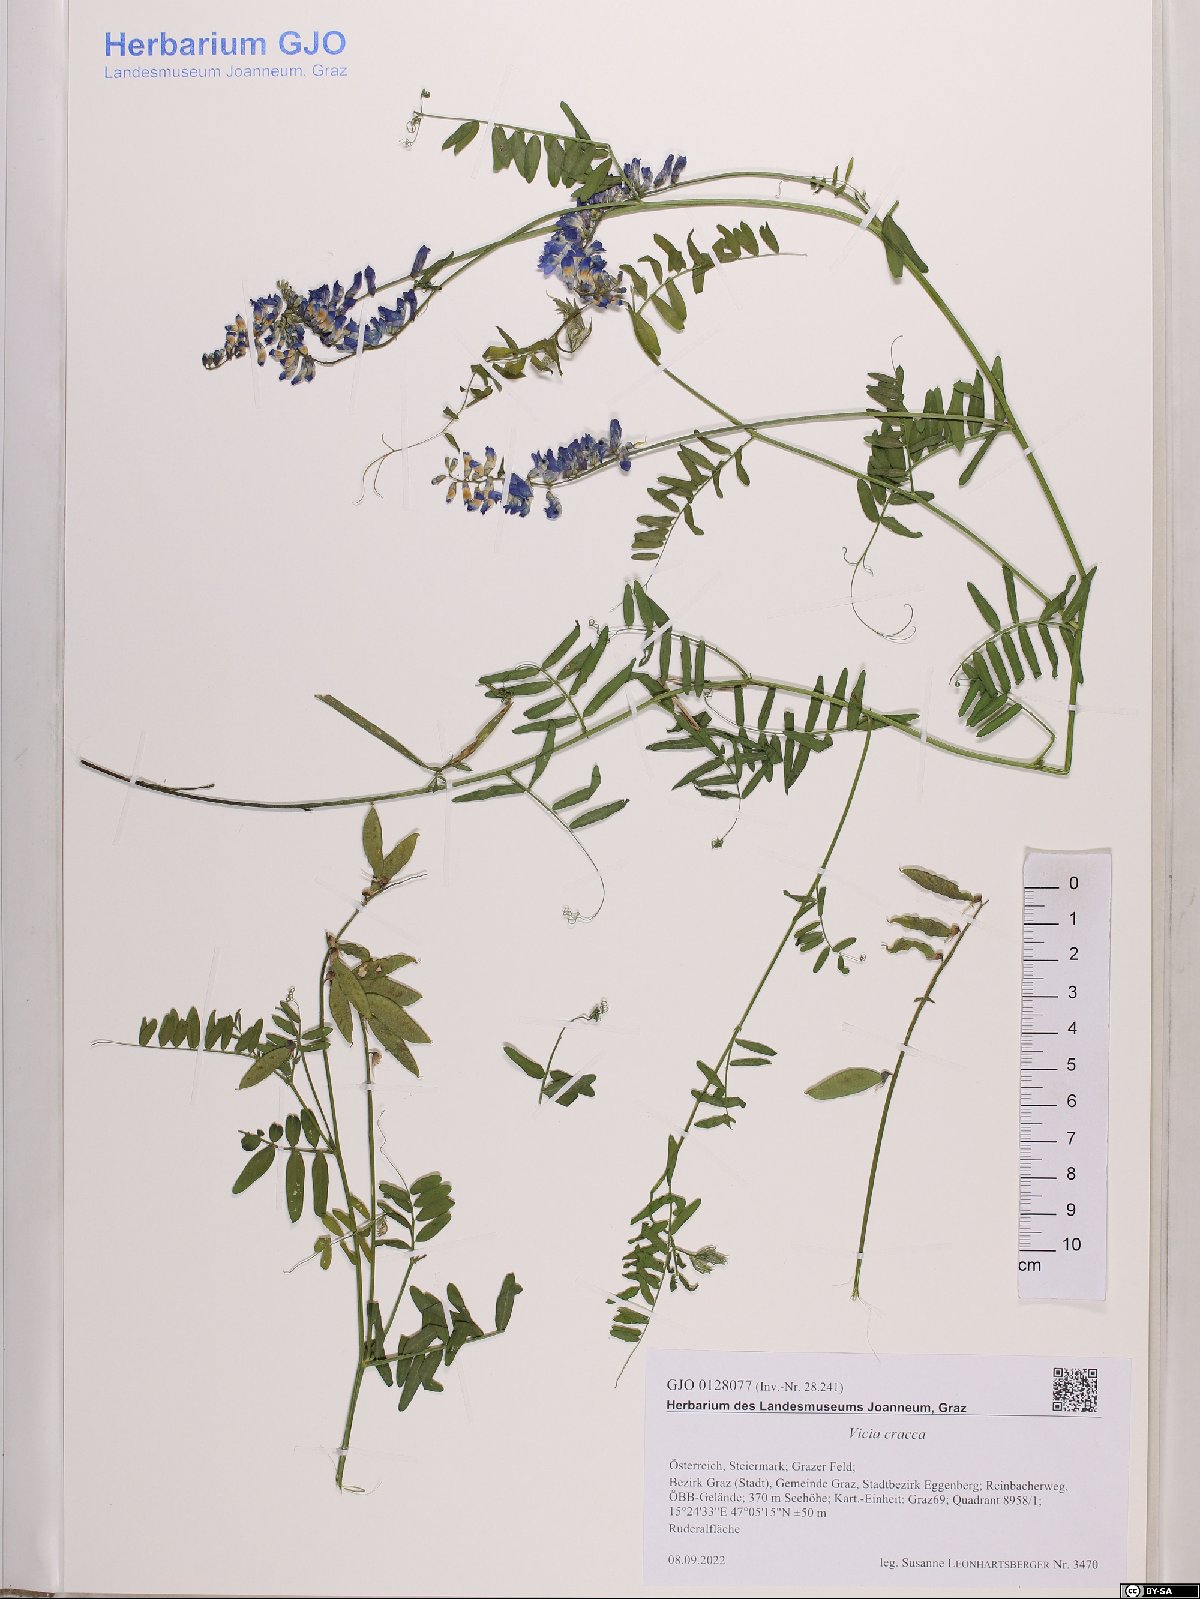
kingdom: Plantae
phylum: Tracheophyta
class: Magnoliopsida
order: Fabales
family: Fabaceae
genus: Vicia
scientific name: Vicia cracca
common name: Bird vetch
